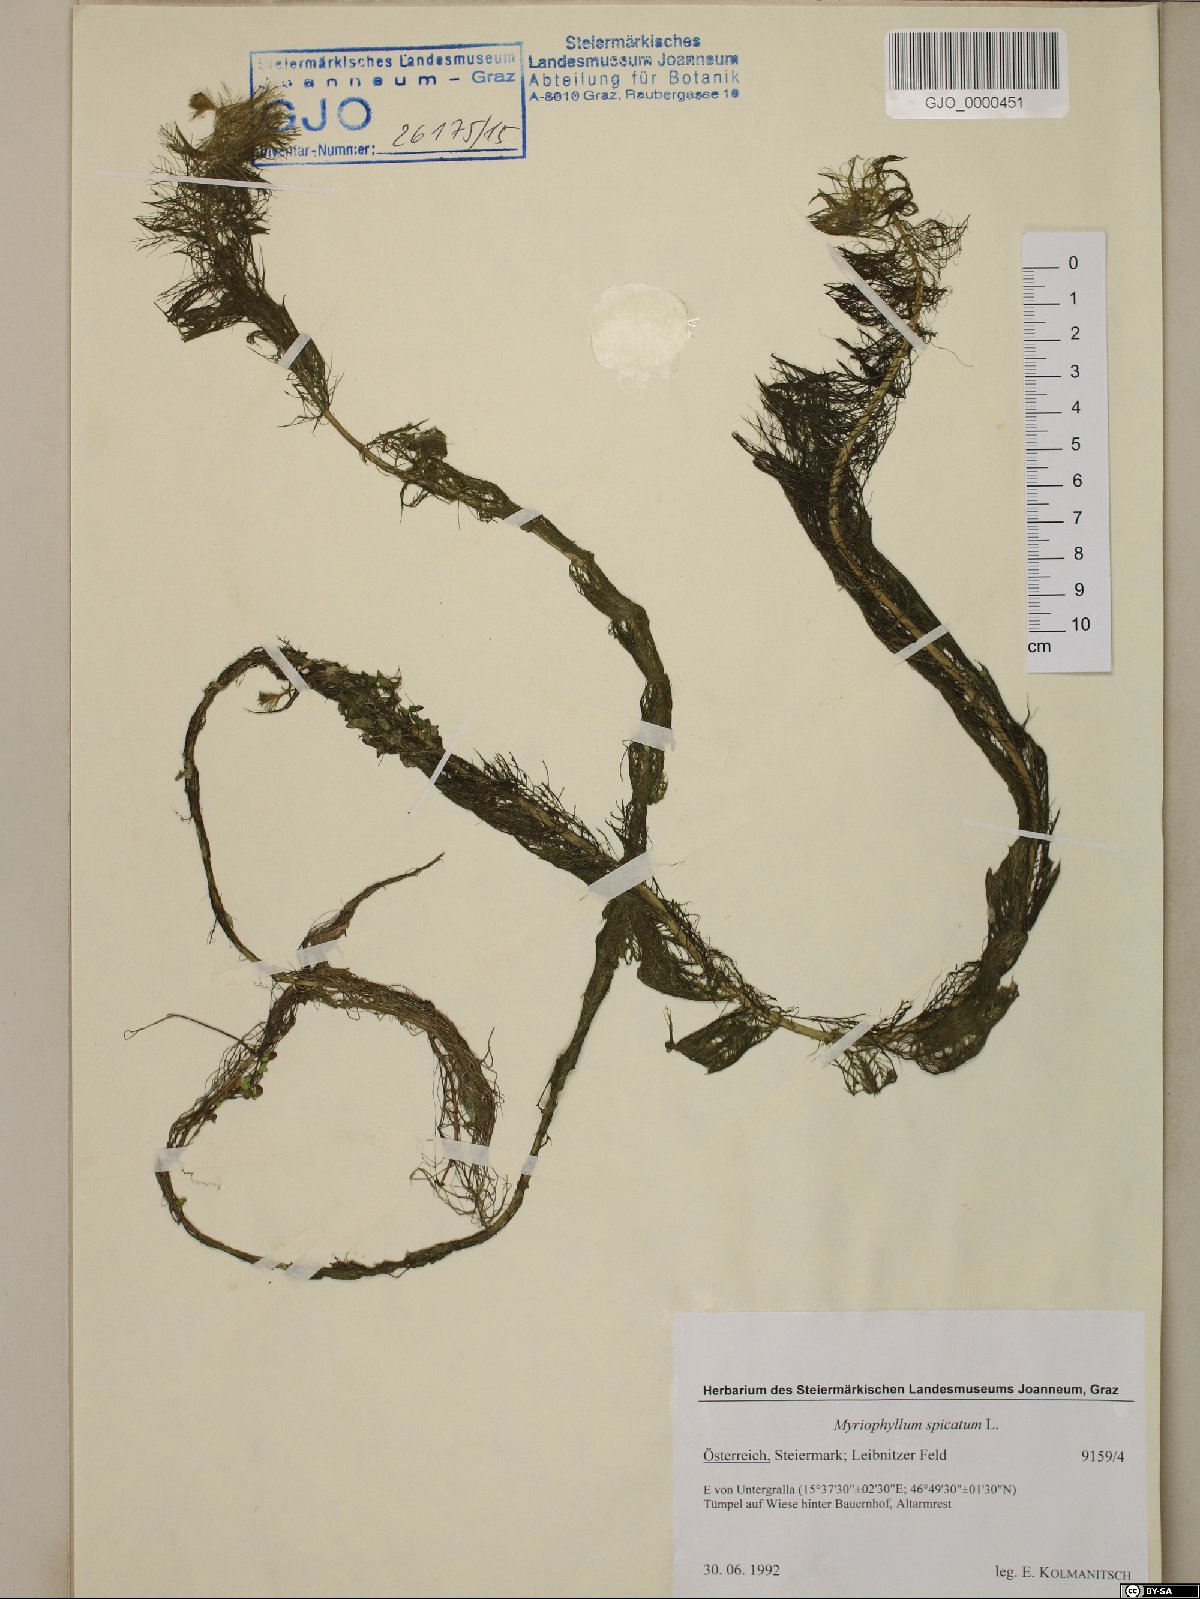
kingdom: Plantae
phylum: Tracheophyta
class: Magnoliopsida
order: Saxifragales
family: Haloragaceae
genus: Myriophyllum
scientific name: Myriophyllum spicatum
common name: Spiked water-milfoil
